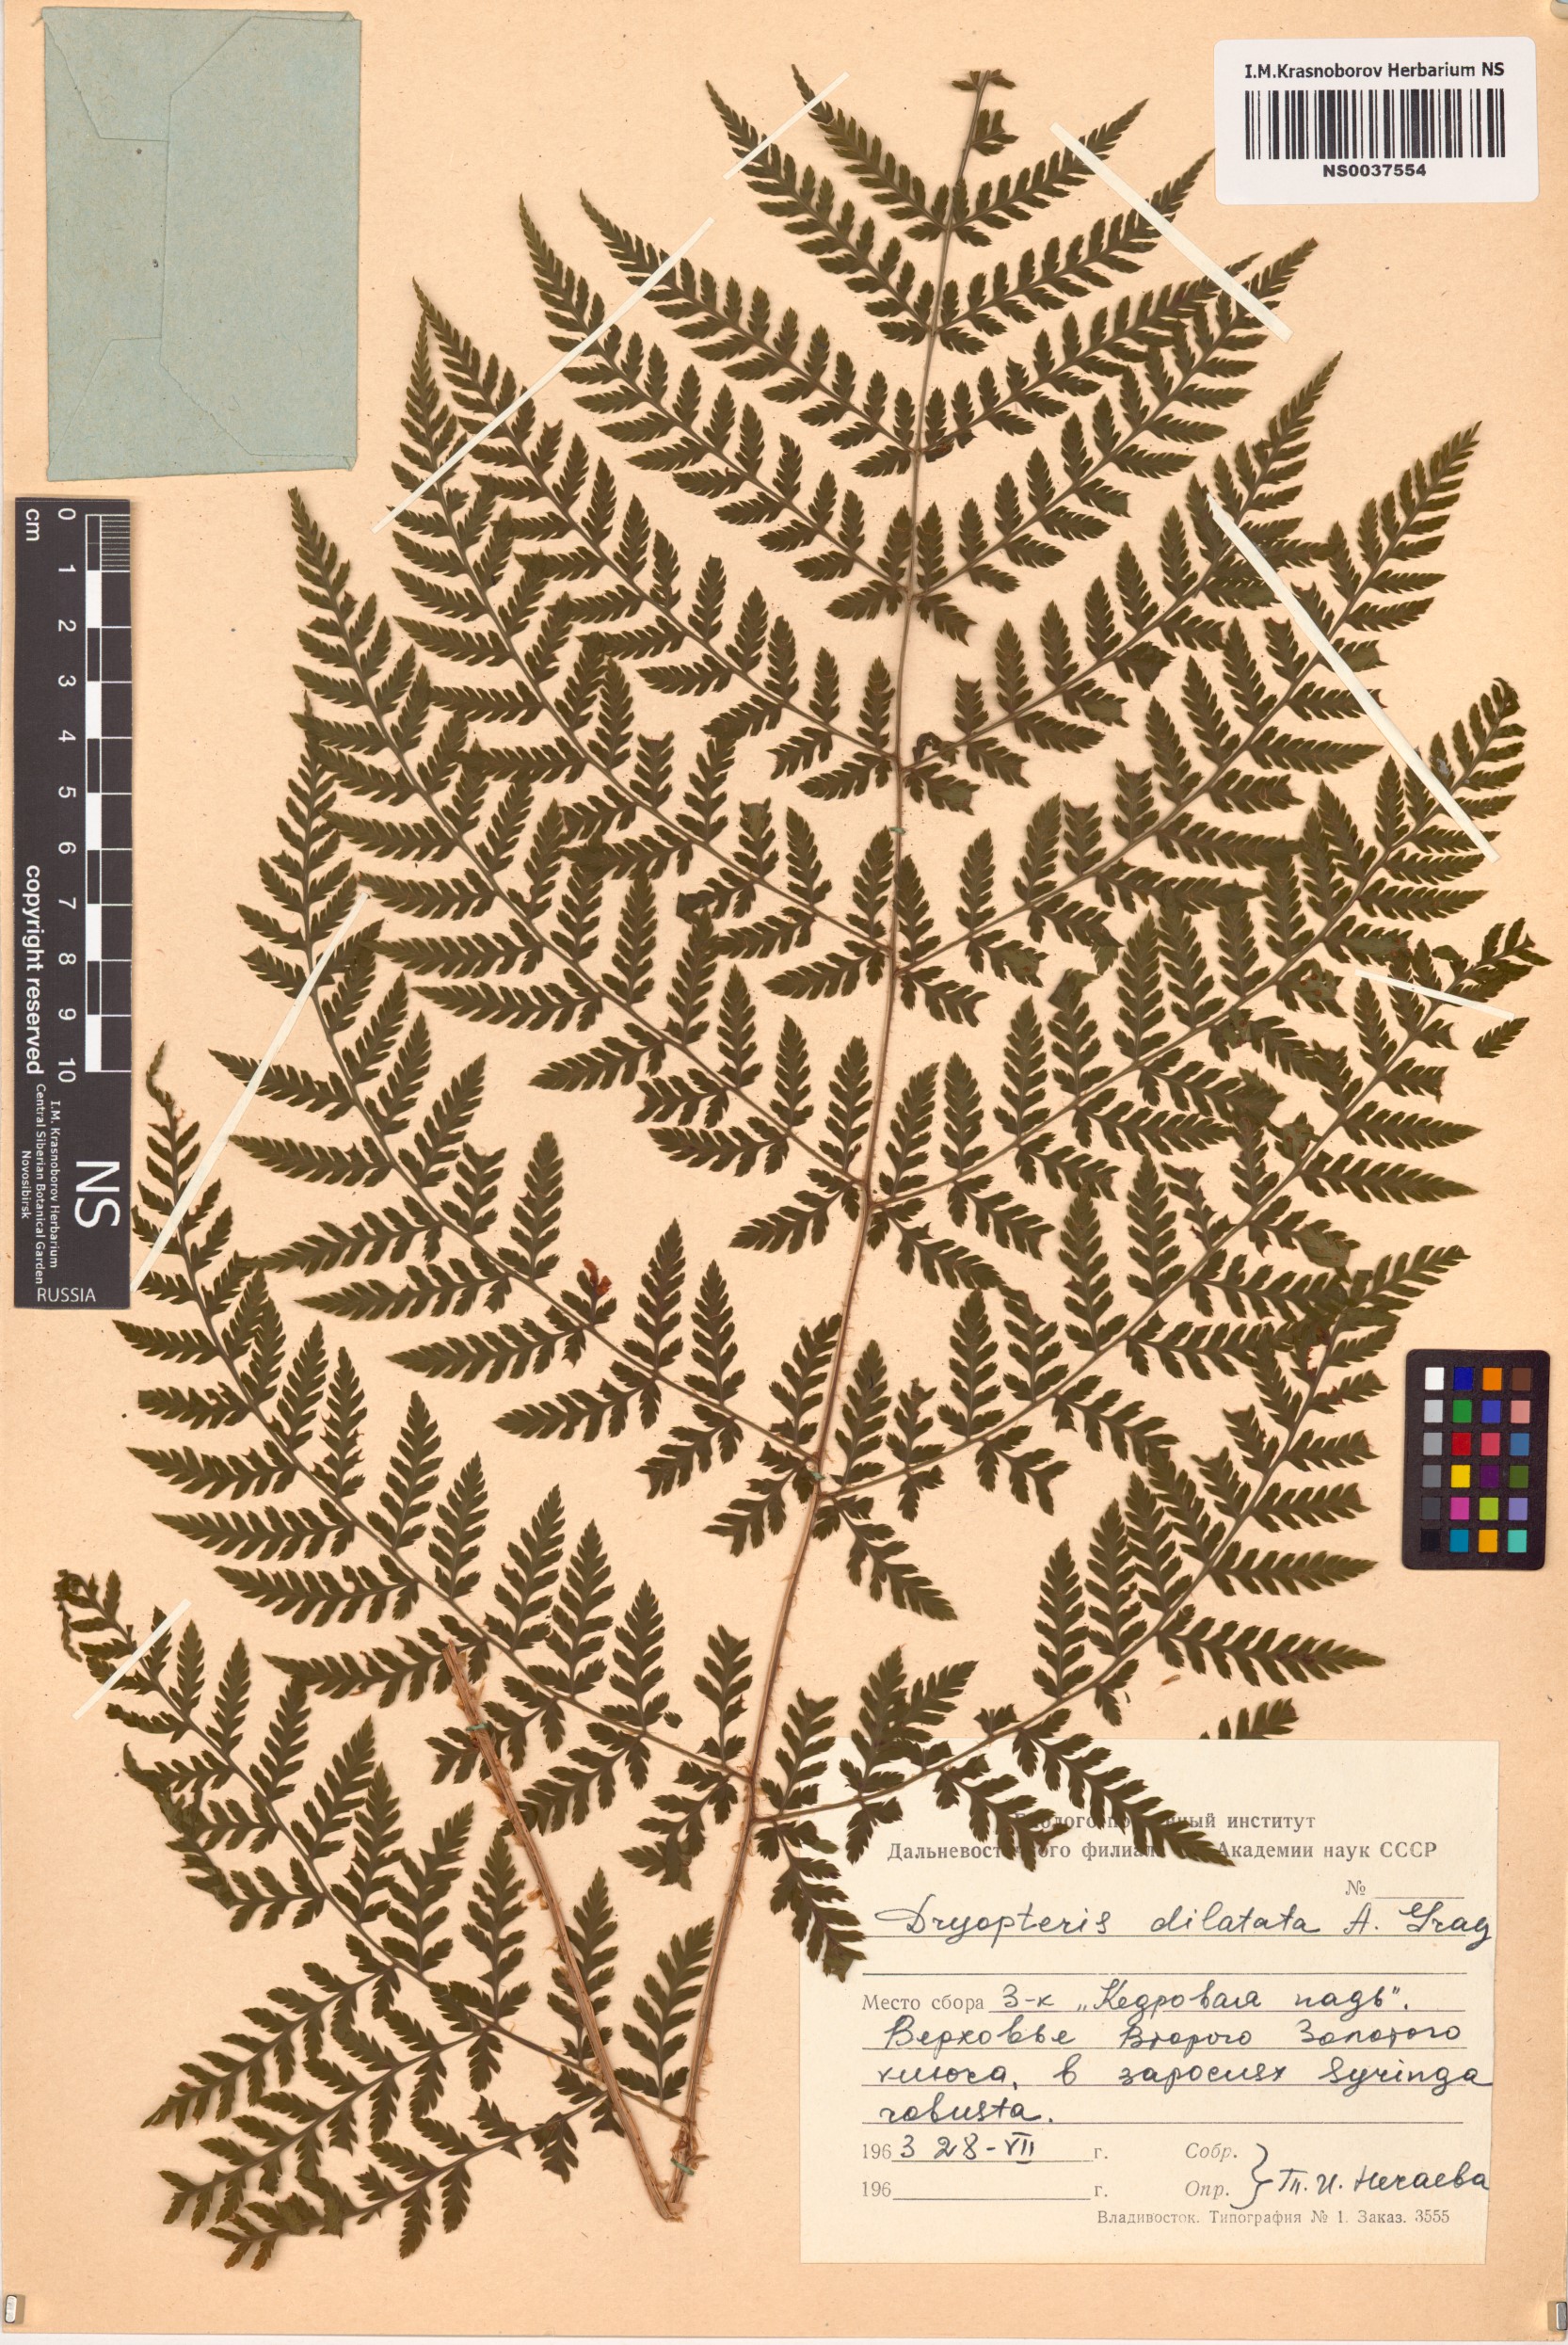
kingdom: Plantae
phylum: Tracheophyta
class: Polypodiopsida
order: Polypodiales
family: Dryopteridaceae
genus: Dryopteris
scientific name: Dryopteris dilatata
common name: Broad buckler-fern
